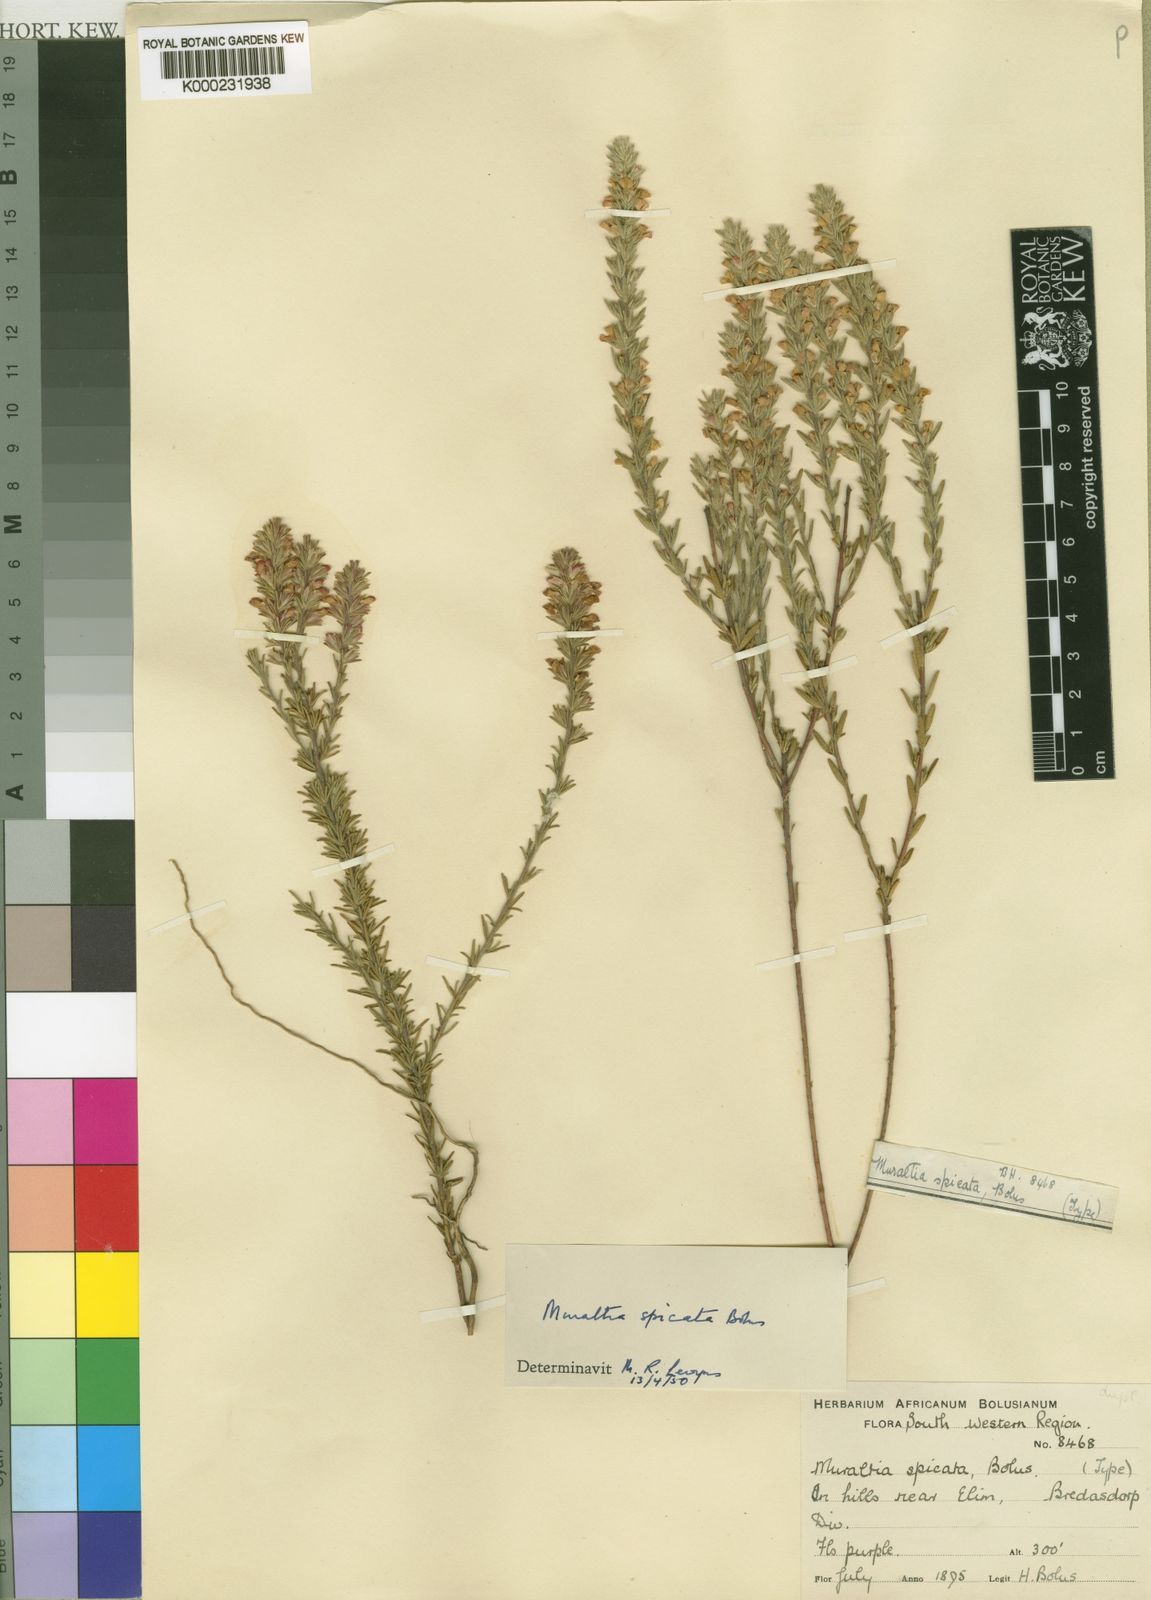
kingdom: Plantae
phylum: Tracheophyta
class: Magnoliopsida
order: Fabales
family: Polygalaceae
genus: Muraltia
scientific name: Muraltia spicata
